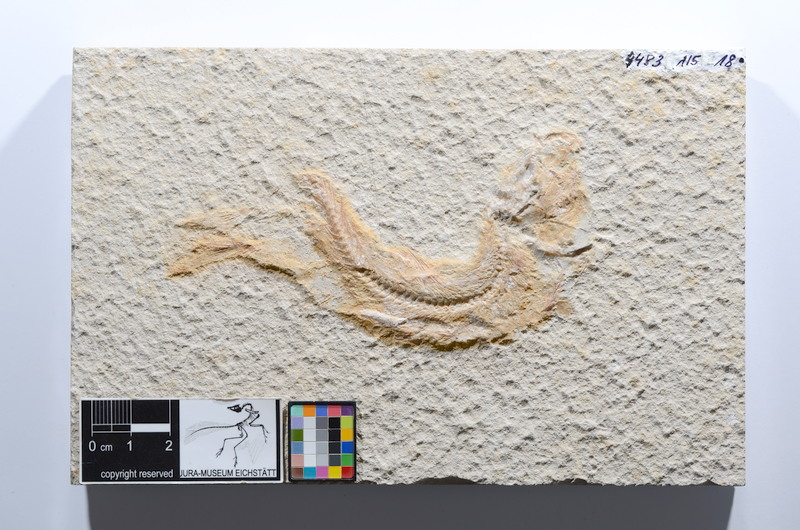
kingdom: Animalia
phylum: Chordata
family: Ascalaboidae
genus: Tharsis
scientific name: Tharsis dubius
